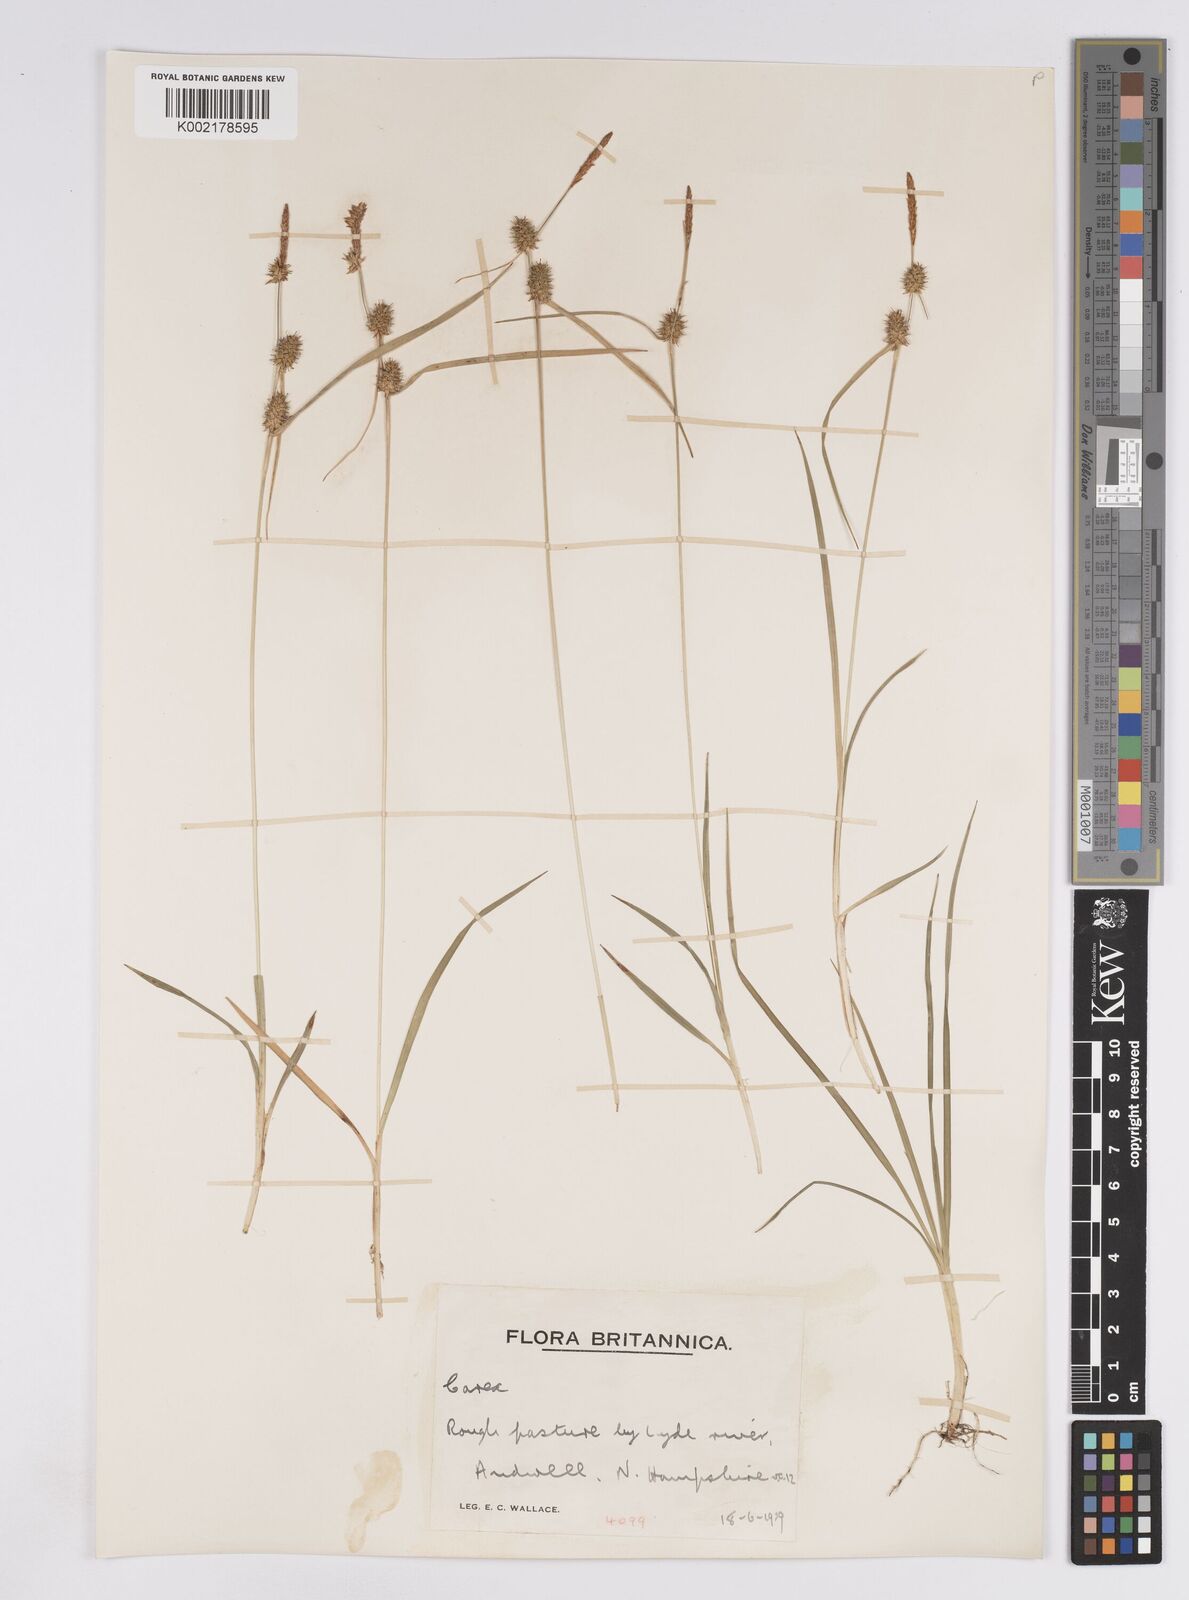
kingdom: Plantae
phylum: Tracheophyta
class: Liliopsida
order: Poales
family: Cyperaceae
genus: Carex
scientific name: Carex lepidocarpa
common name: Long-stalked yellow-sedge
